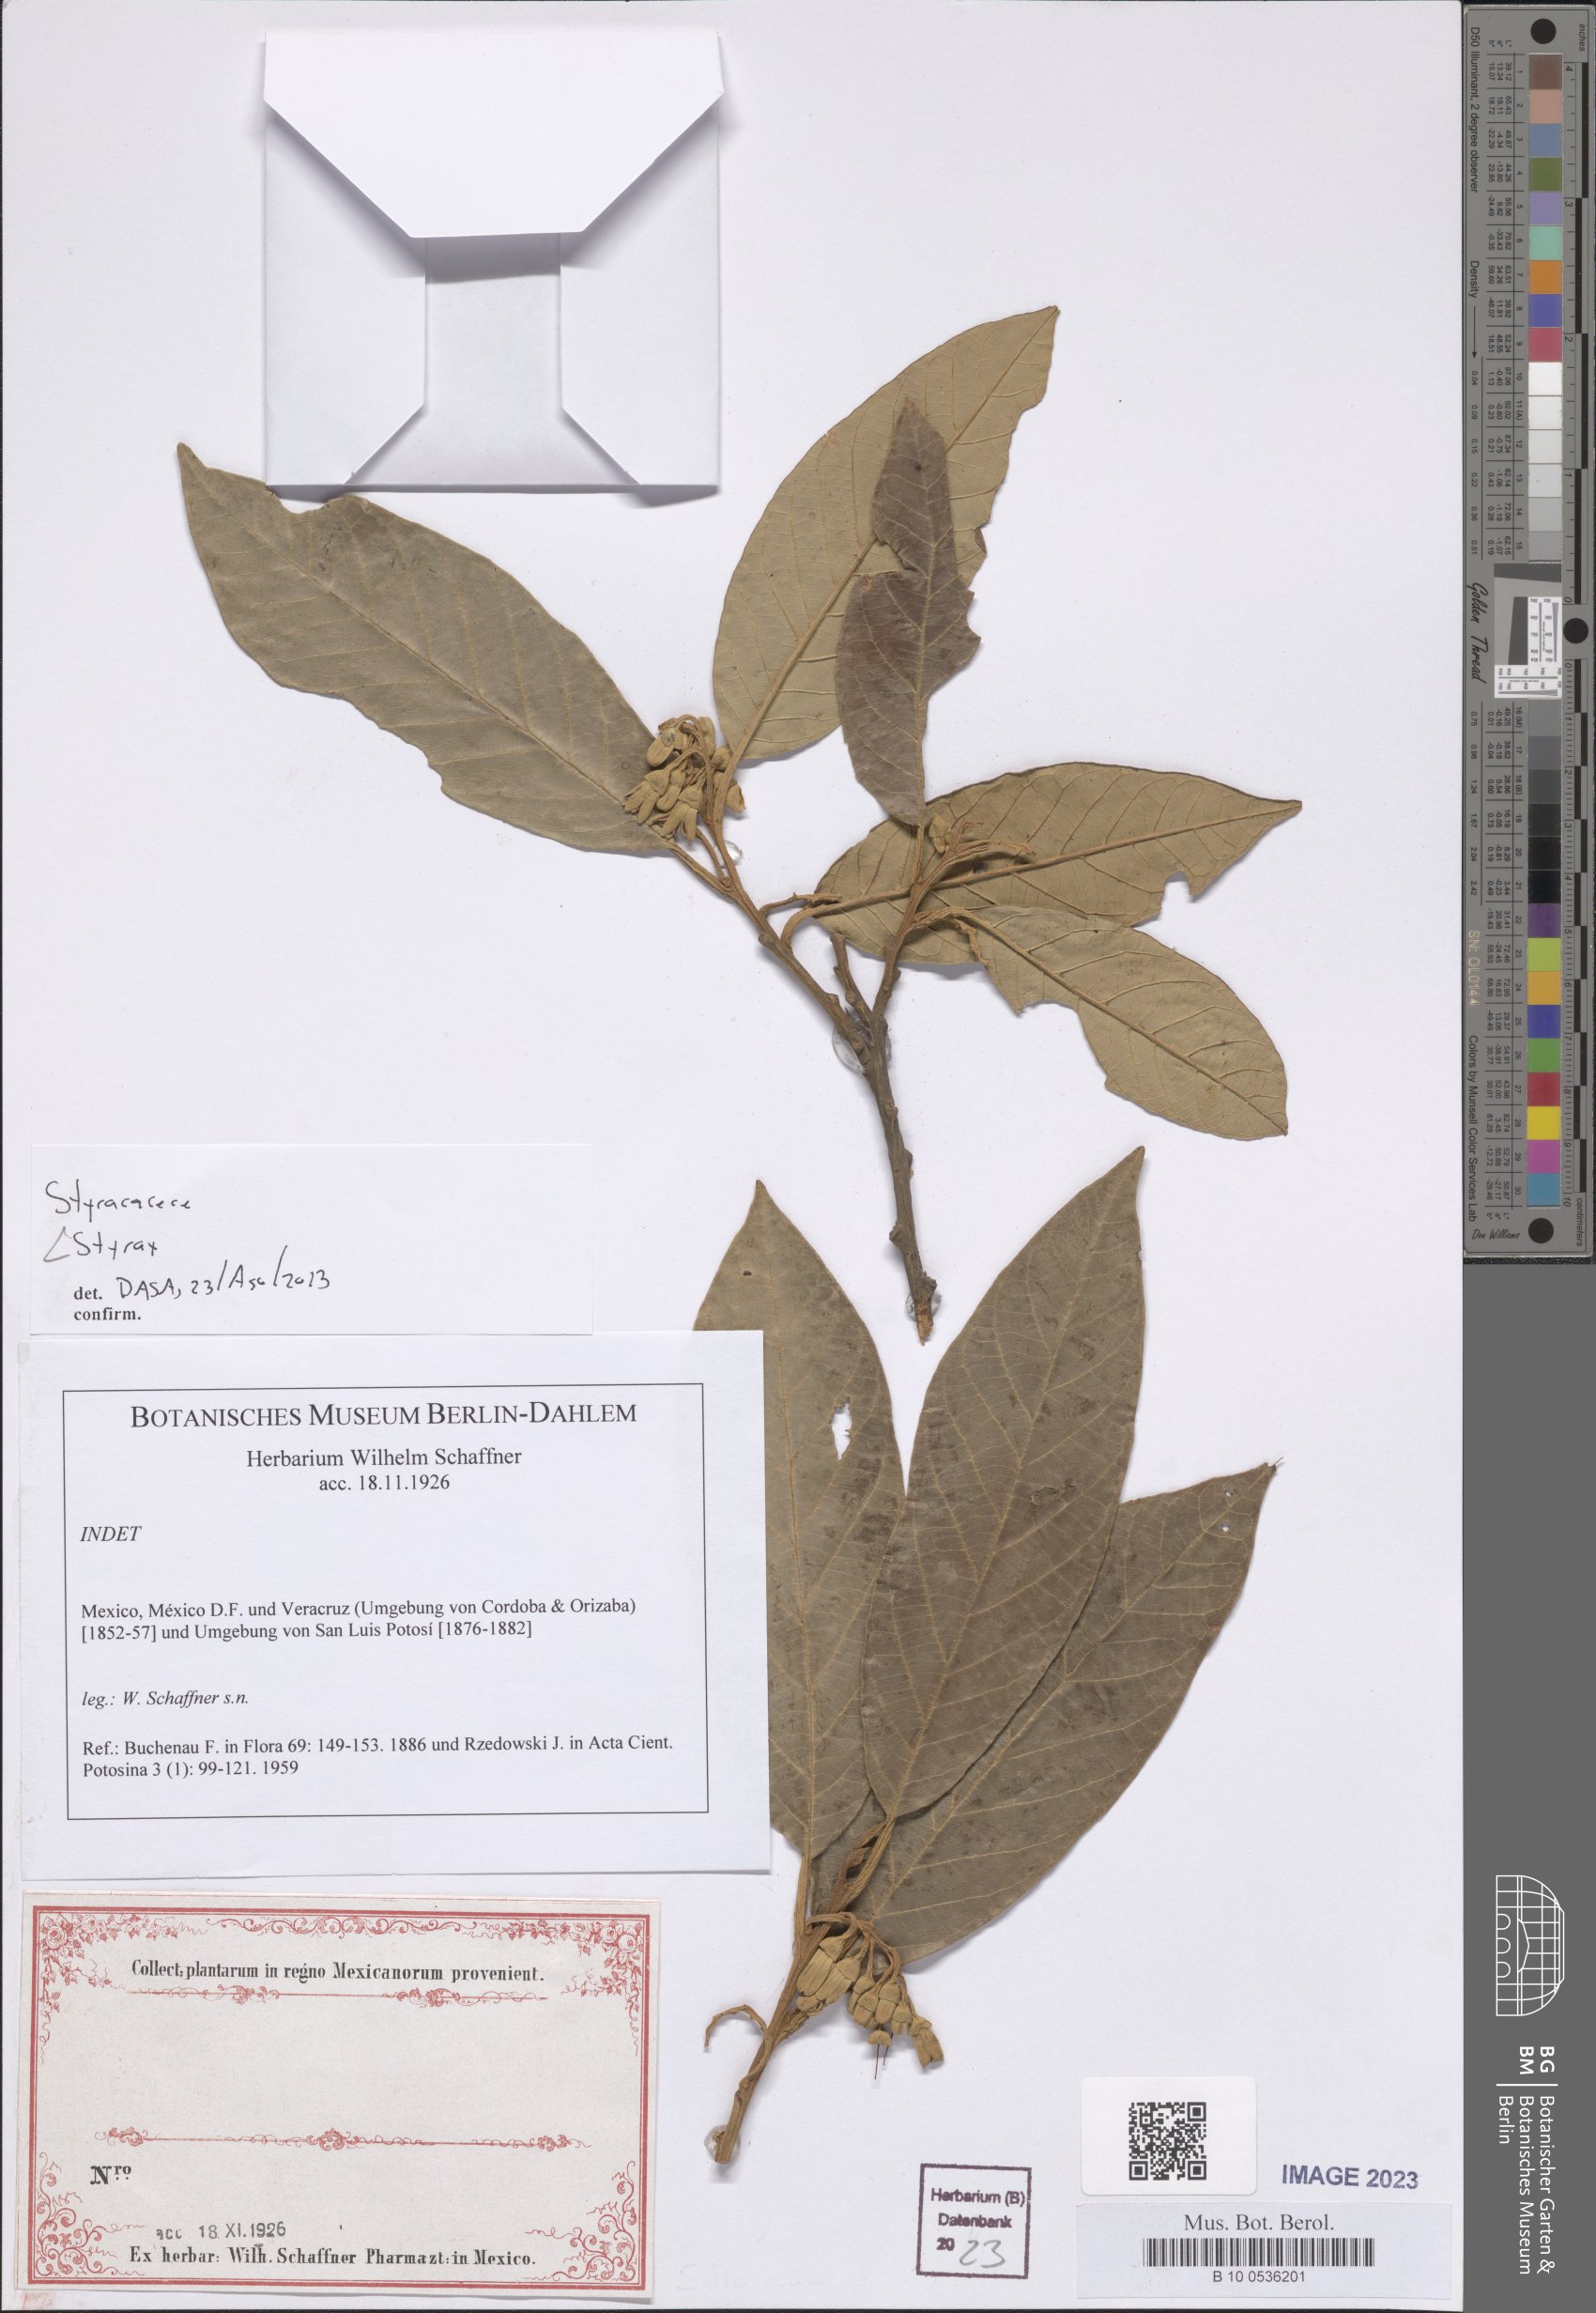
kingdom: Plantae
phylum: Tracheophyta
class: Magnoliopsida
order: Ericales
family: Styracaceae
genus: Styrax
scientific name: Styrax
